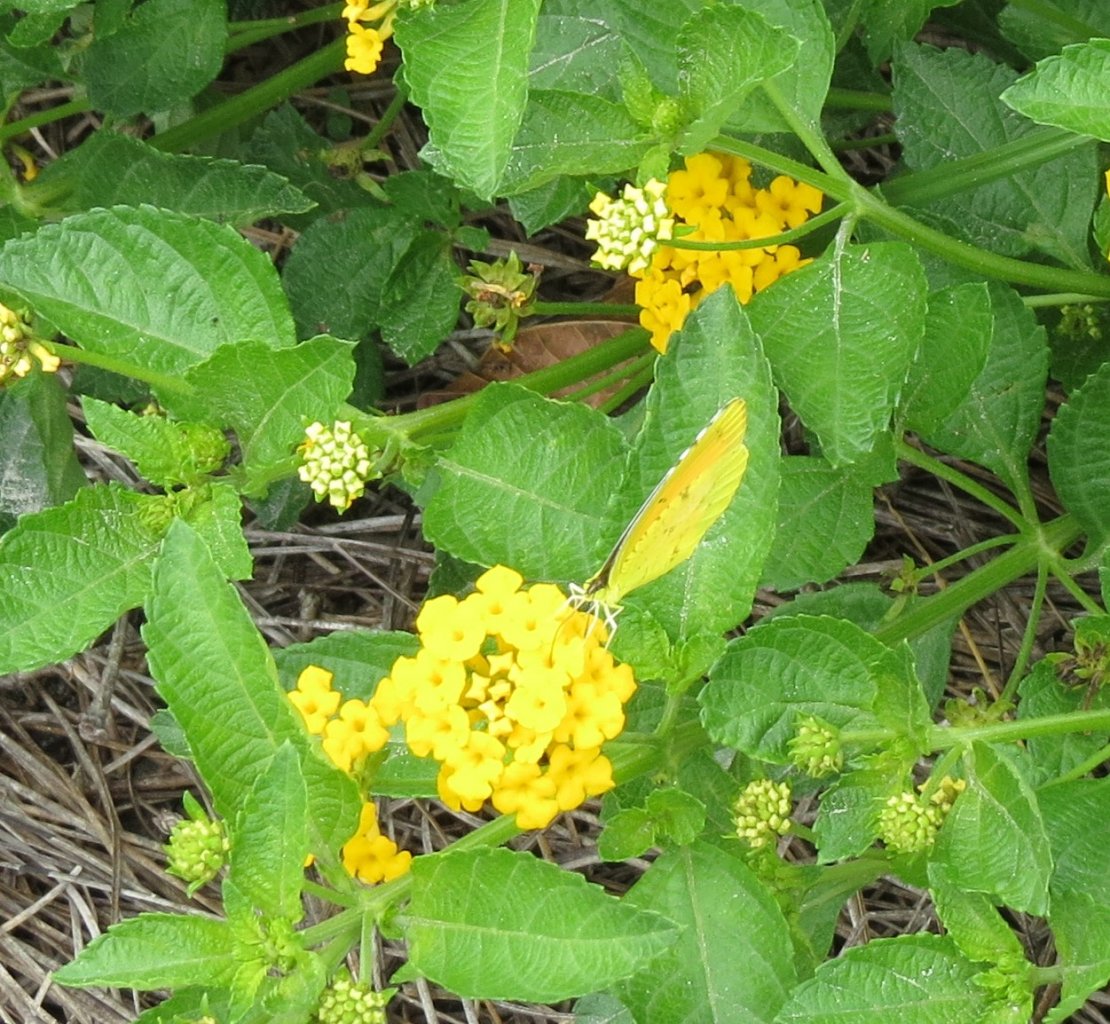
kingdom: Animalia
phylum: Arthropoda
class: Insecta
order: Lepidoptera
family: Pieridae
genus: Abaeis
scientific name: Abaeis nicippe
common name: Sleepy Orange
